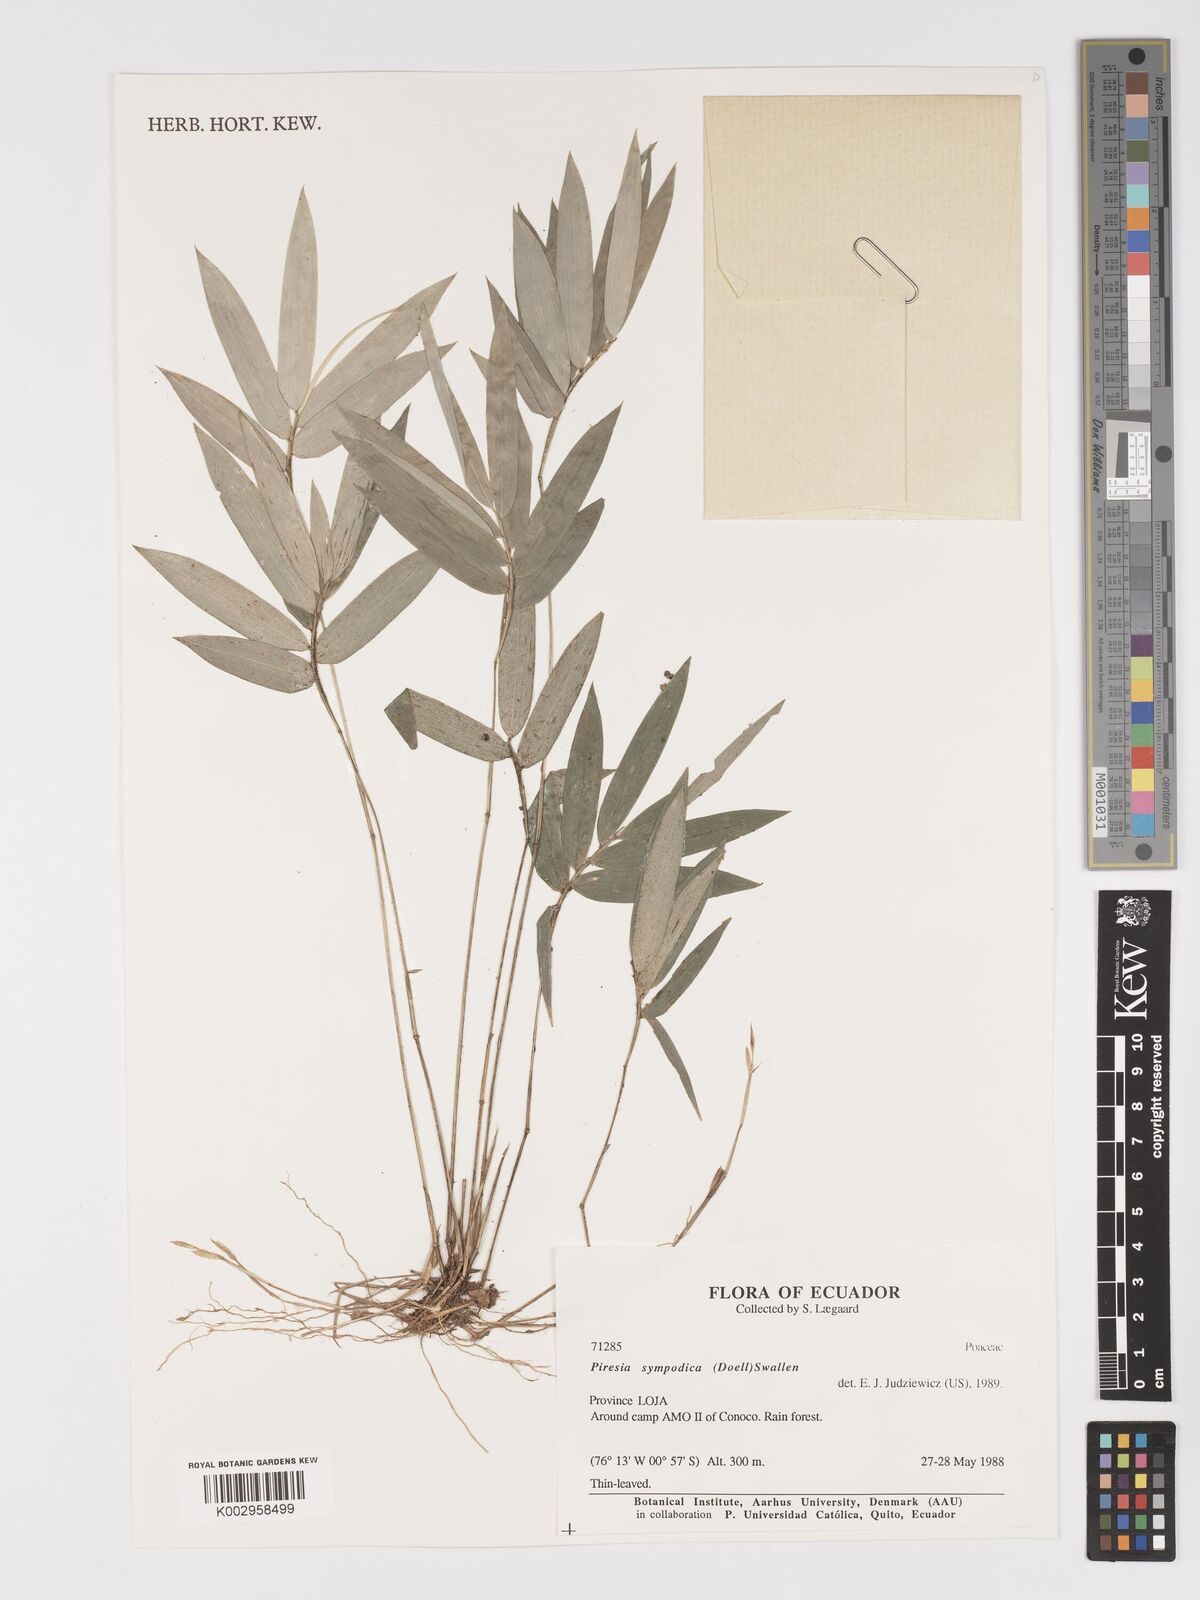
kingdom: Plantae
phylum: Tracheophyta
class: Liliopsida
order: Poales
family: Poaceae
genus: Piresia
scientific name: Piresia sympodica
